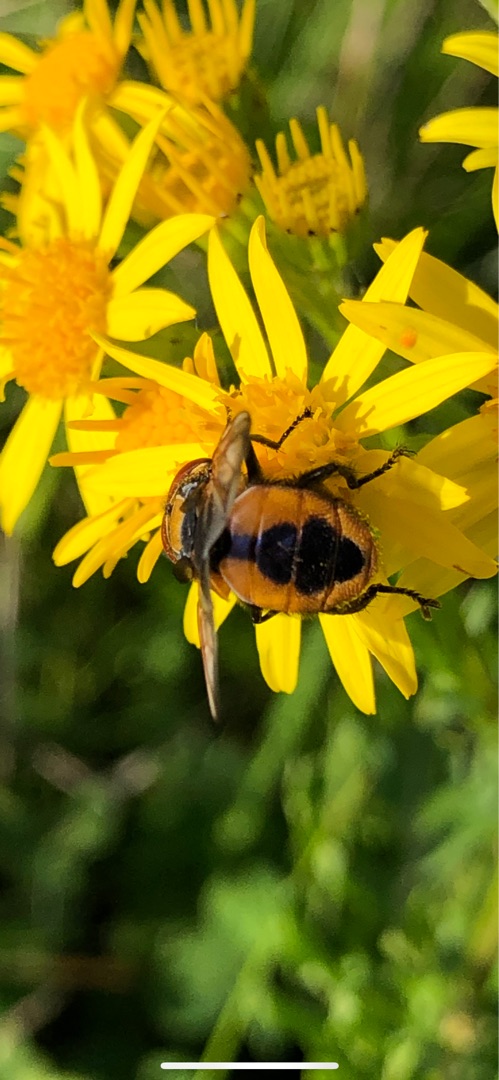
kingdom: Animalia
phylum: Arthropoda
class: Insecta
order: Diptera
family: Tachinidae
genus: Phasia
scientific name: Phasia aurigera
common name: Gylden pragtsnylteflue
